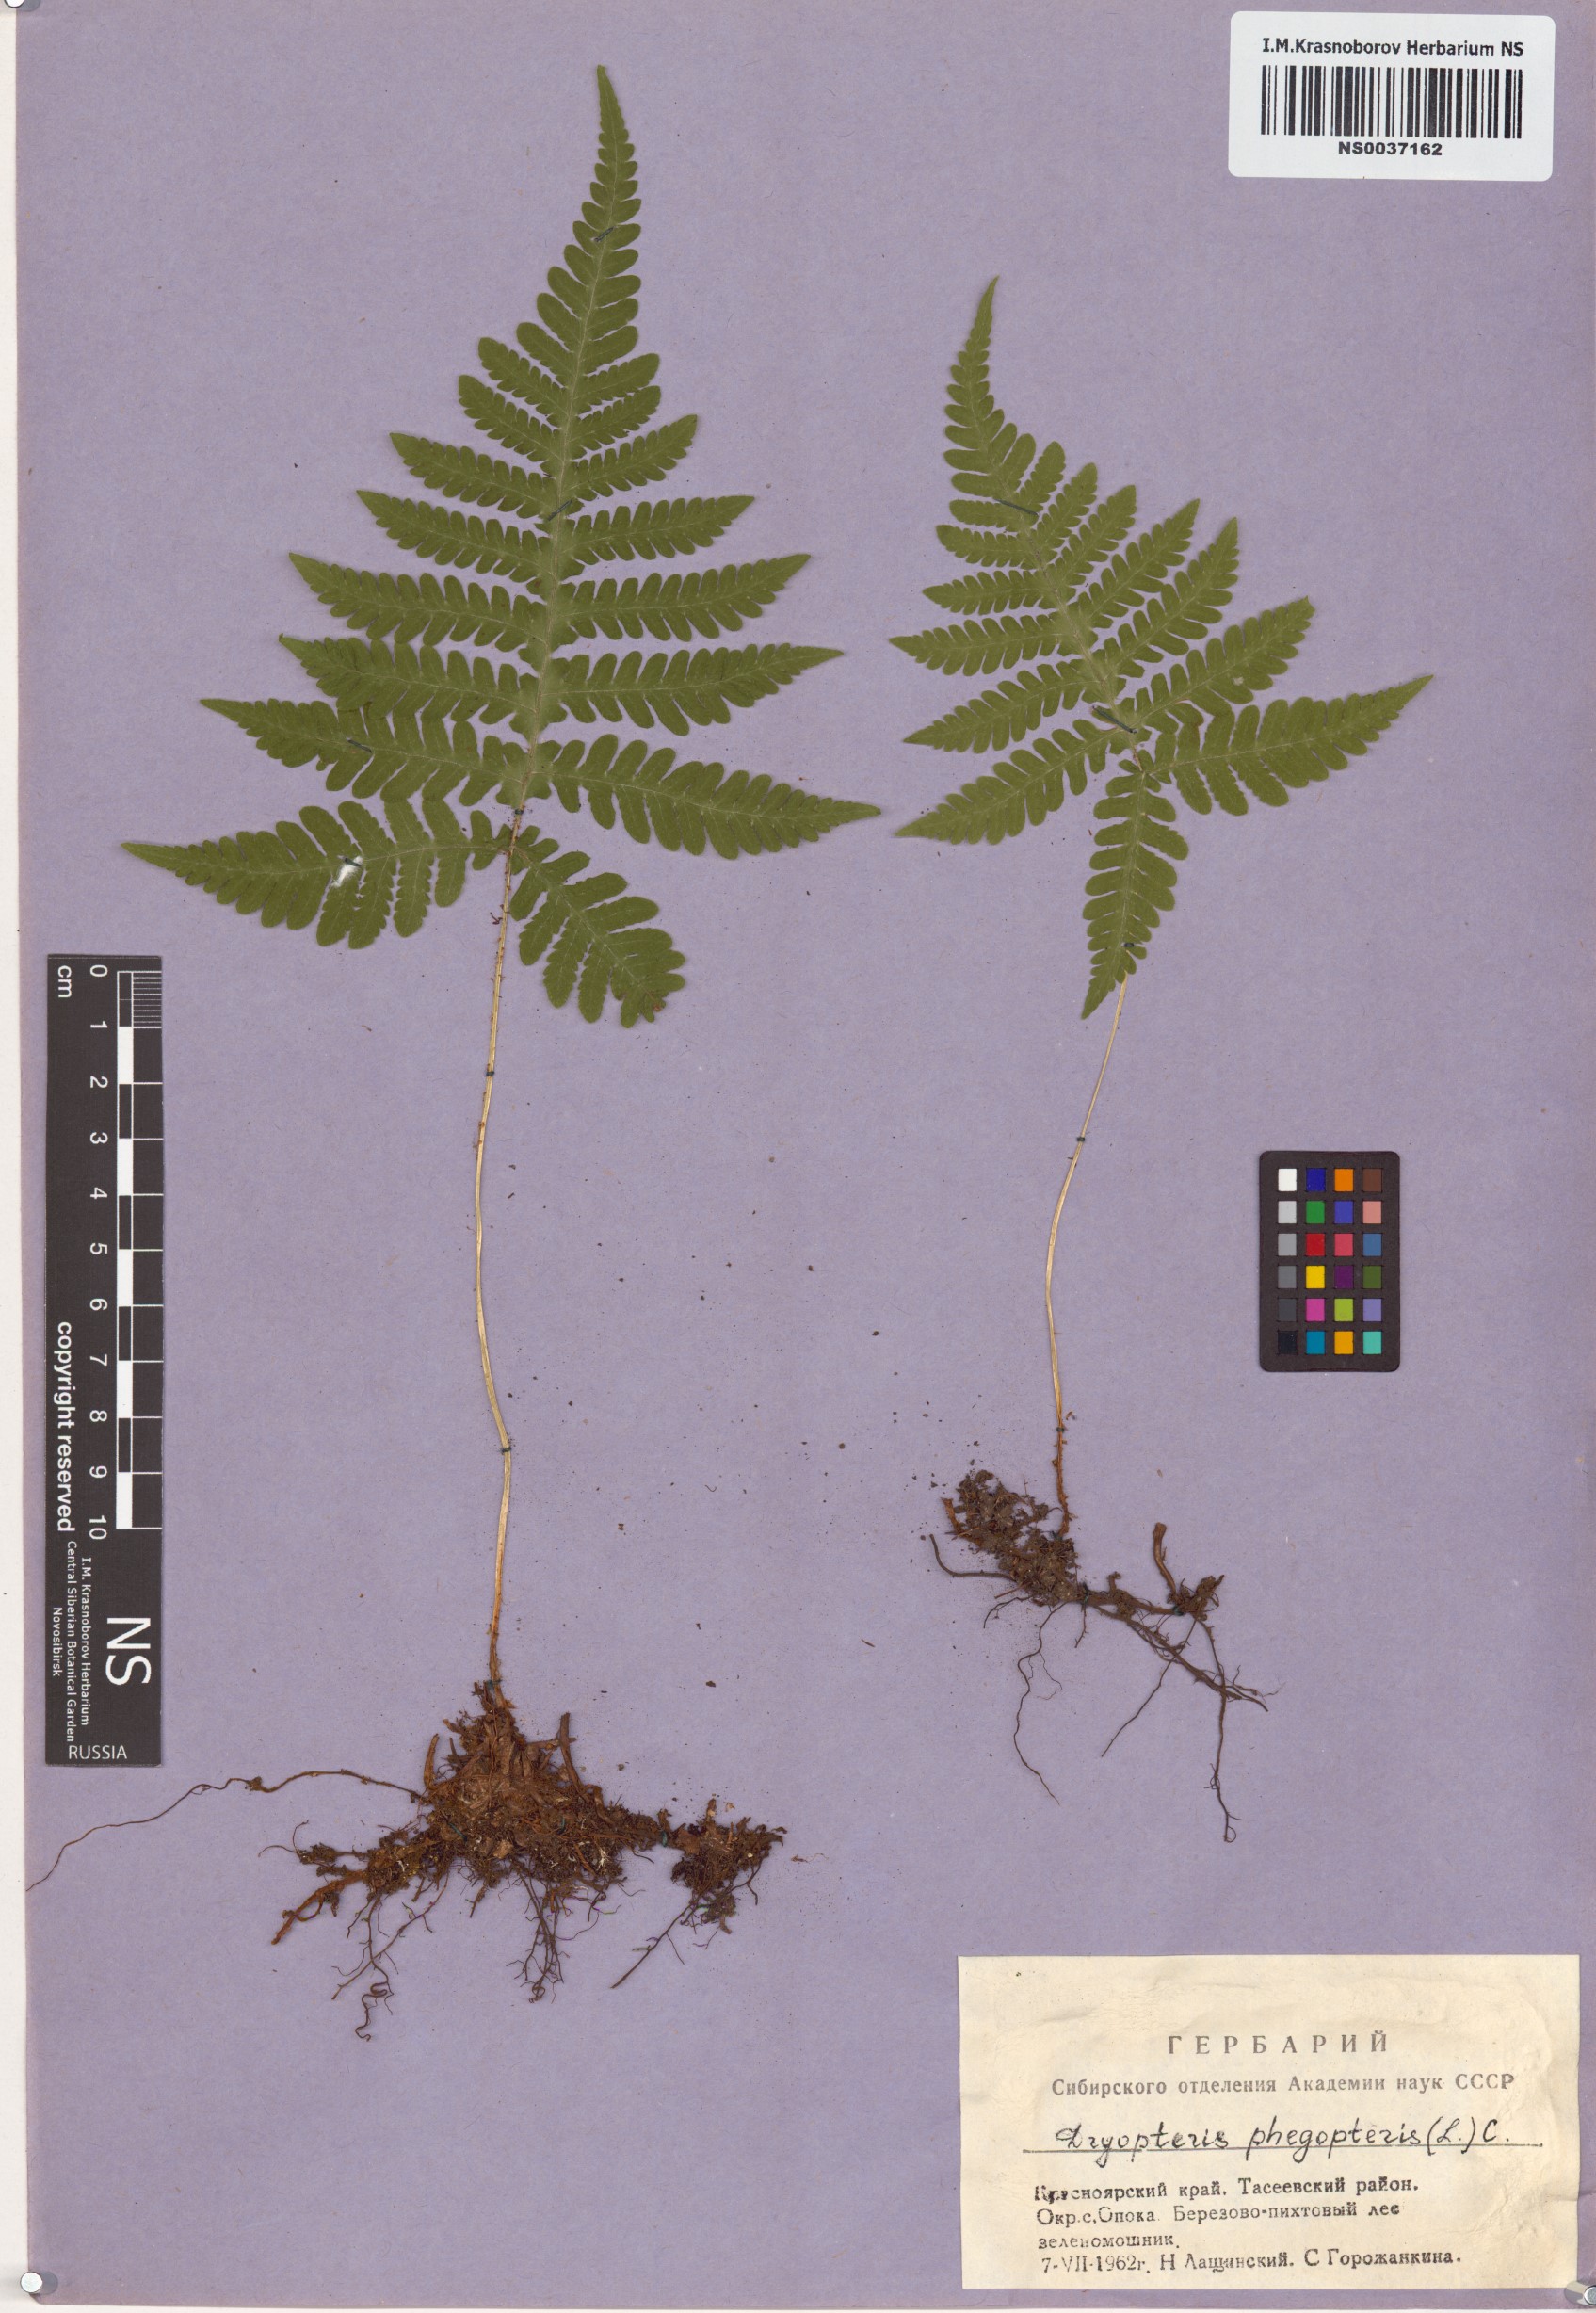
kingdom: Plantae
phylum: Tracheophyta
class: Polypodiopsida
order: Polypodiales
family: Thelypteridaceae
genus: Phegopteris
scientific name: Phegopteris connectilis
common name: Beech fern
